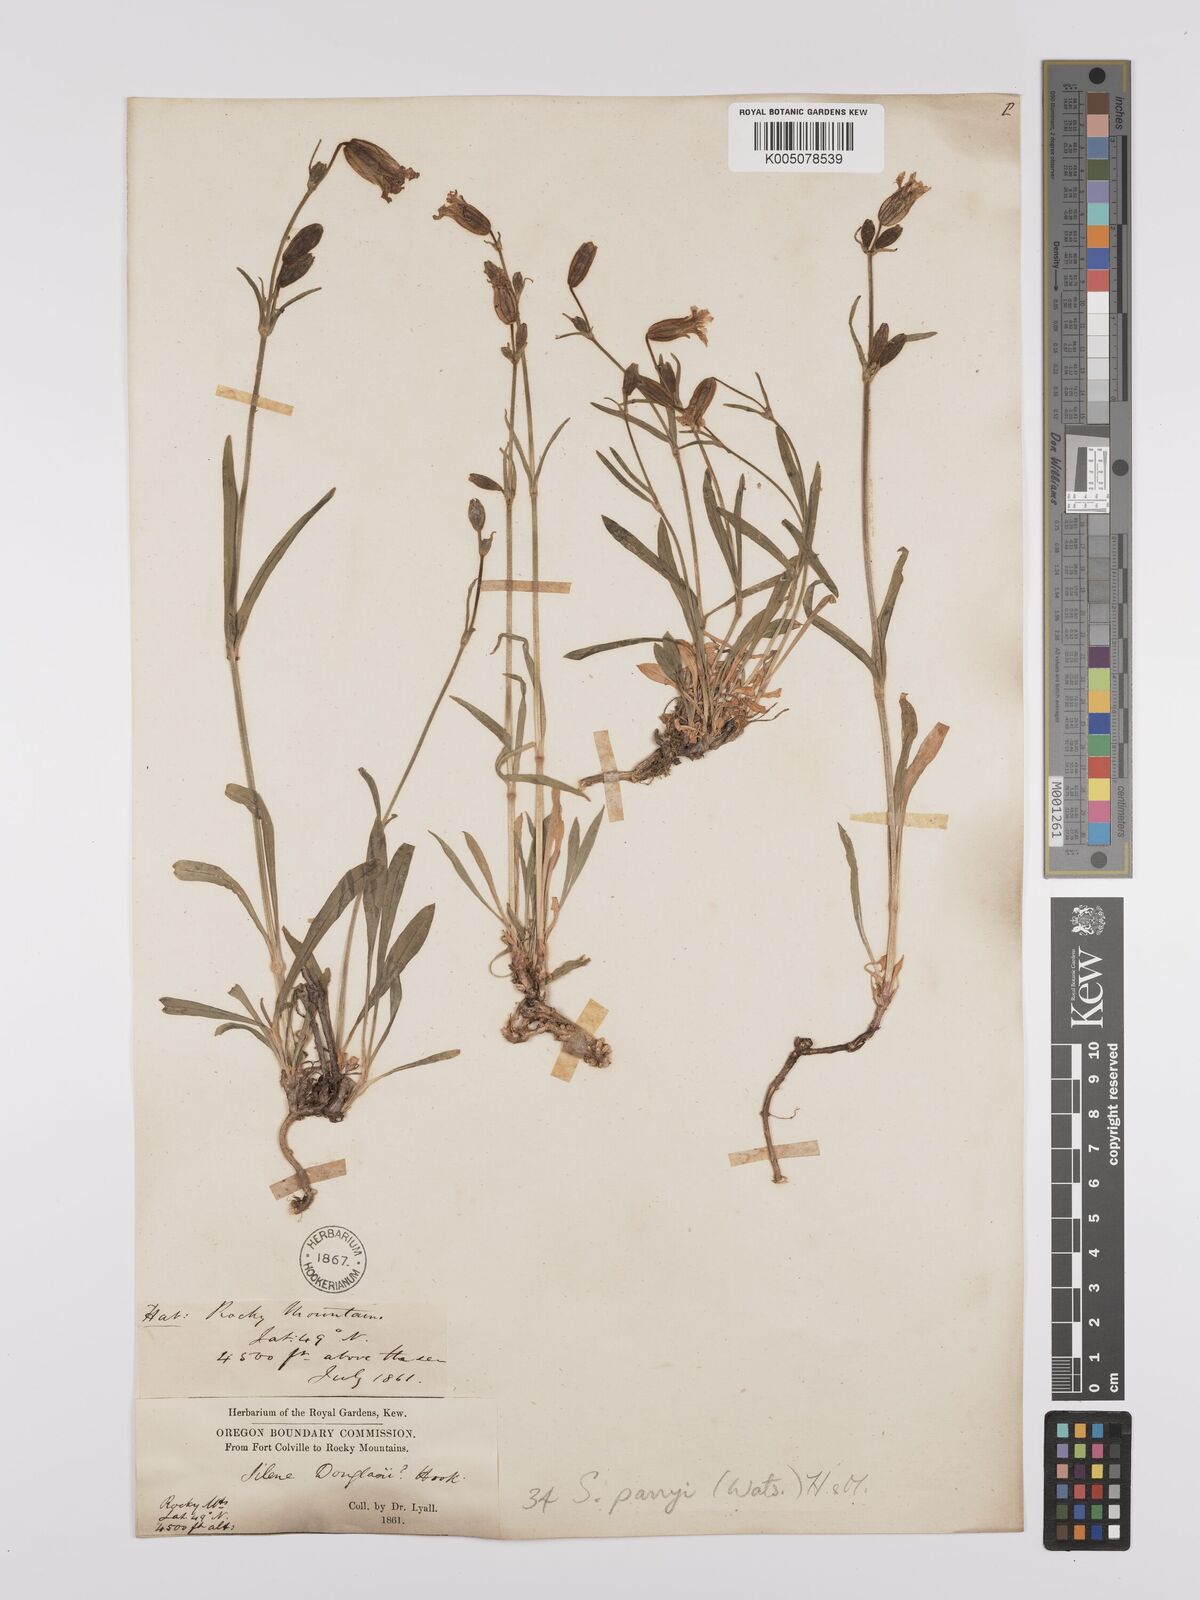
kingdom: Plantae
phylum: Tracheophyta
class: Magnoliopsida
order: Caryophyllales
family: Caryophyllaceae
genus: Silene
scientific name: Silene parryi
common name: Parry's campion
